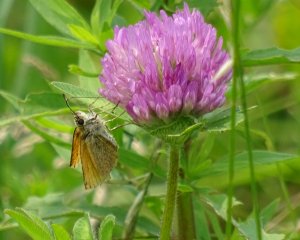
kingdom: Animalia
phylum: Arthropoda
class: Insecta
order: Lepidoptera
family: Hesperiidae
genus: Thymelicus
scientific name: Thymelicus lineola
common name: European Skipper
